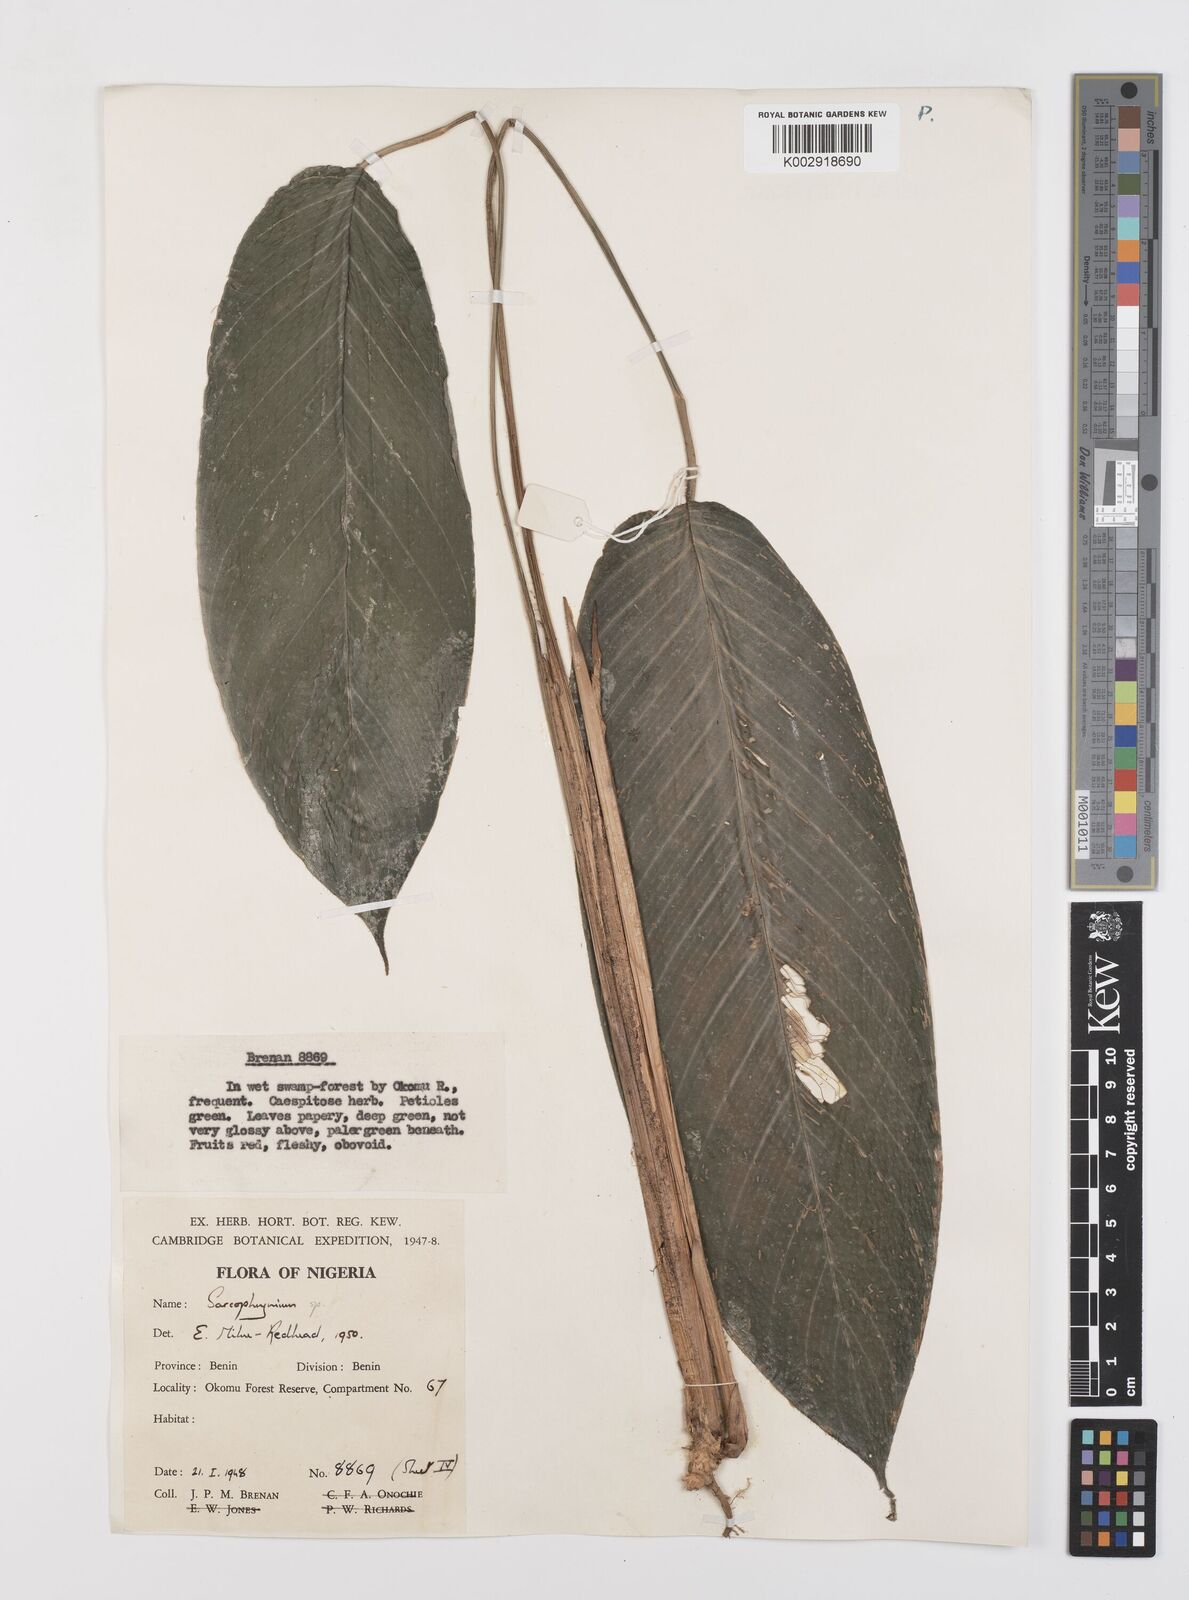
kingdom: Plantae
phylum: Tracheophyta
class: Liliopsida
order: Zingiberales
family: Marantaceae
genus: Sarcophrynium
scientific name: Sarcophrynium prionogonium
